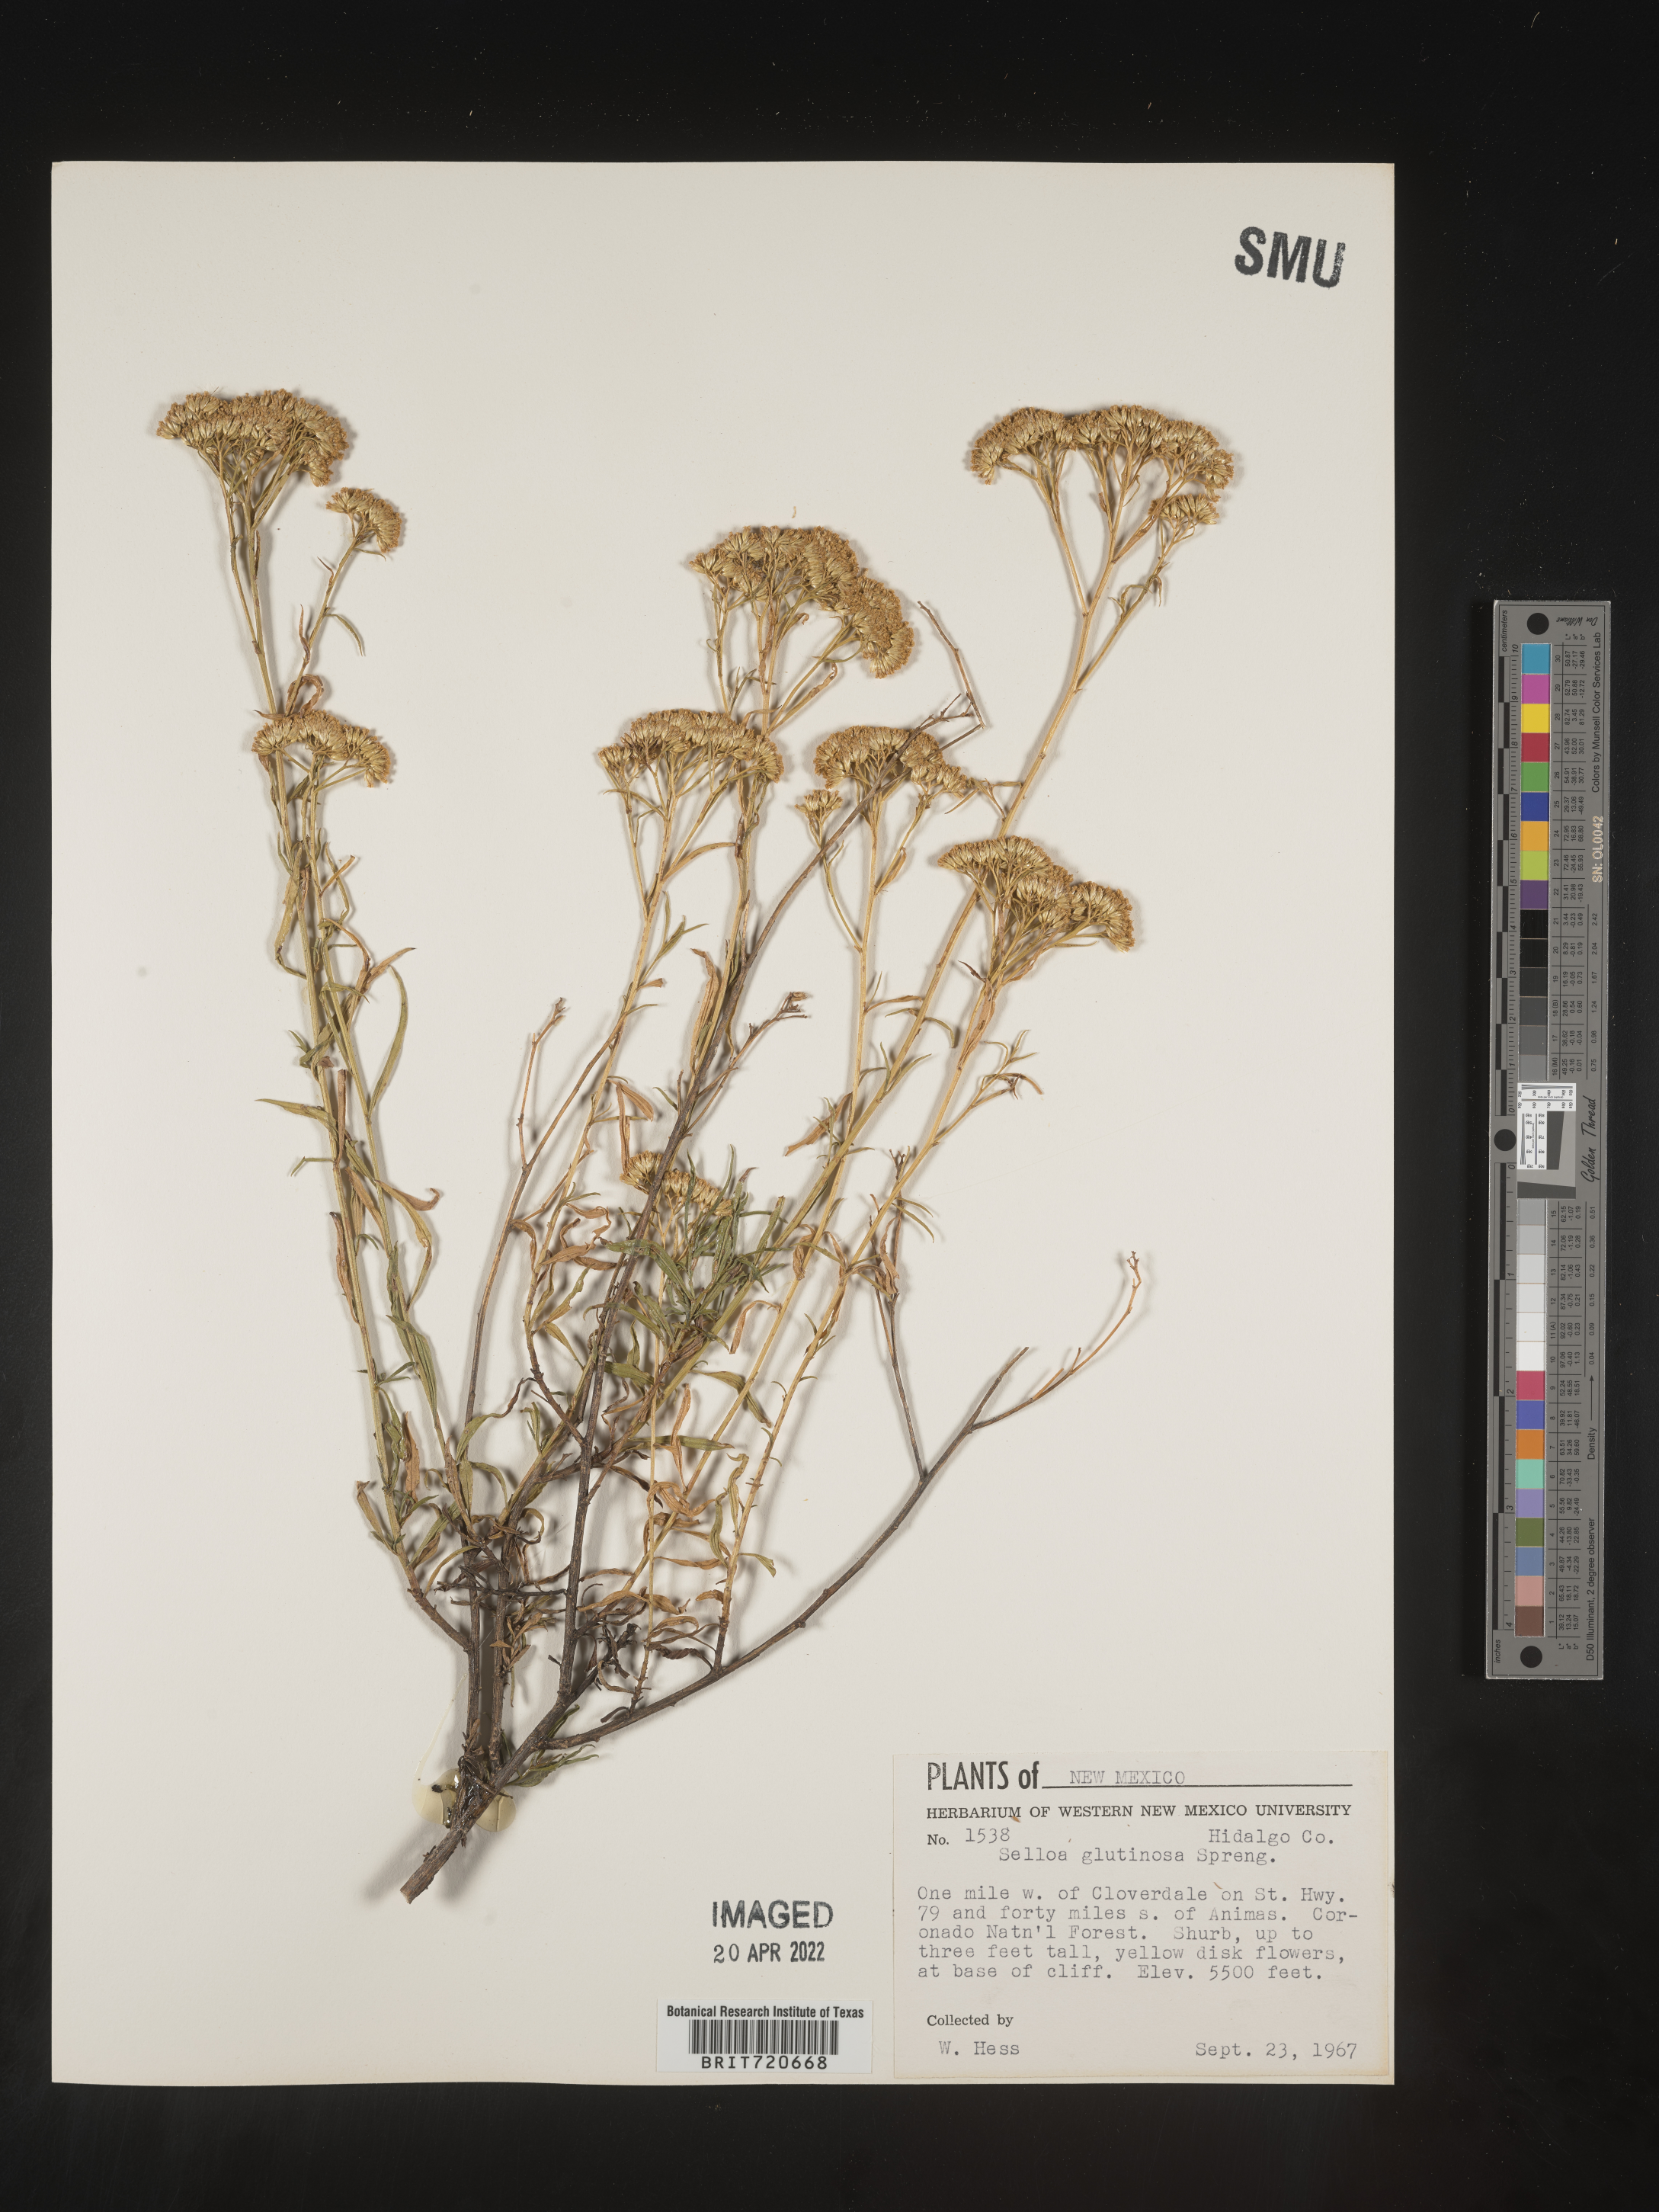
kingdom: Plantae
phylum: Tracheophyta
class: Magnoliopsida
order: Asterales
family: Asteraceae
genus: Gymnosperma
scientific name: Gymnosperma glutinosum
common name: Gumhead
